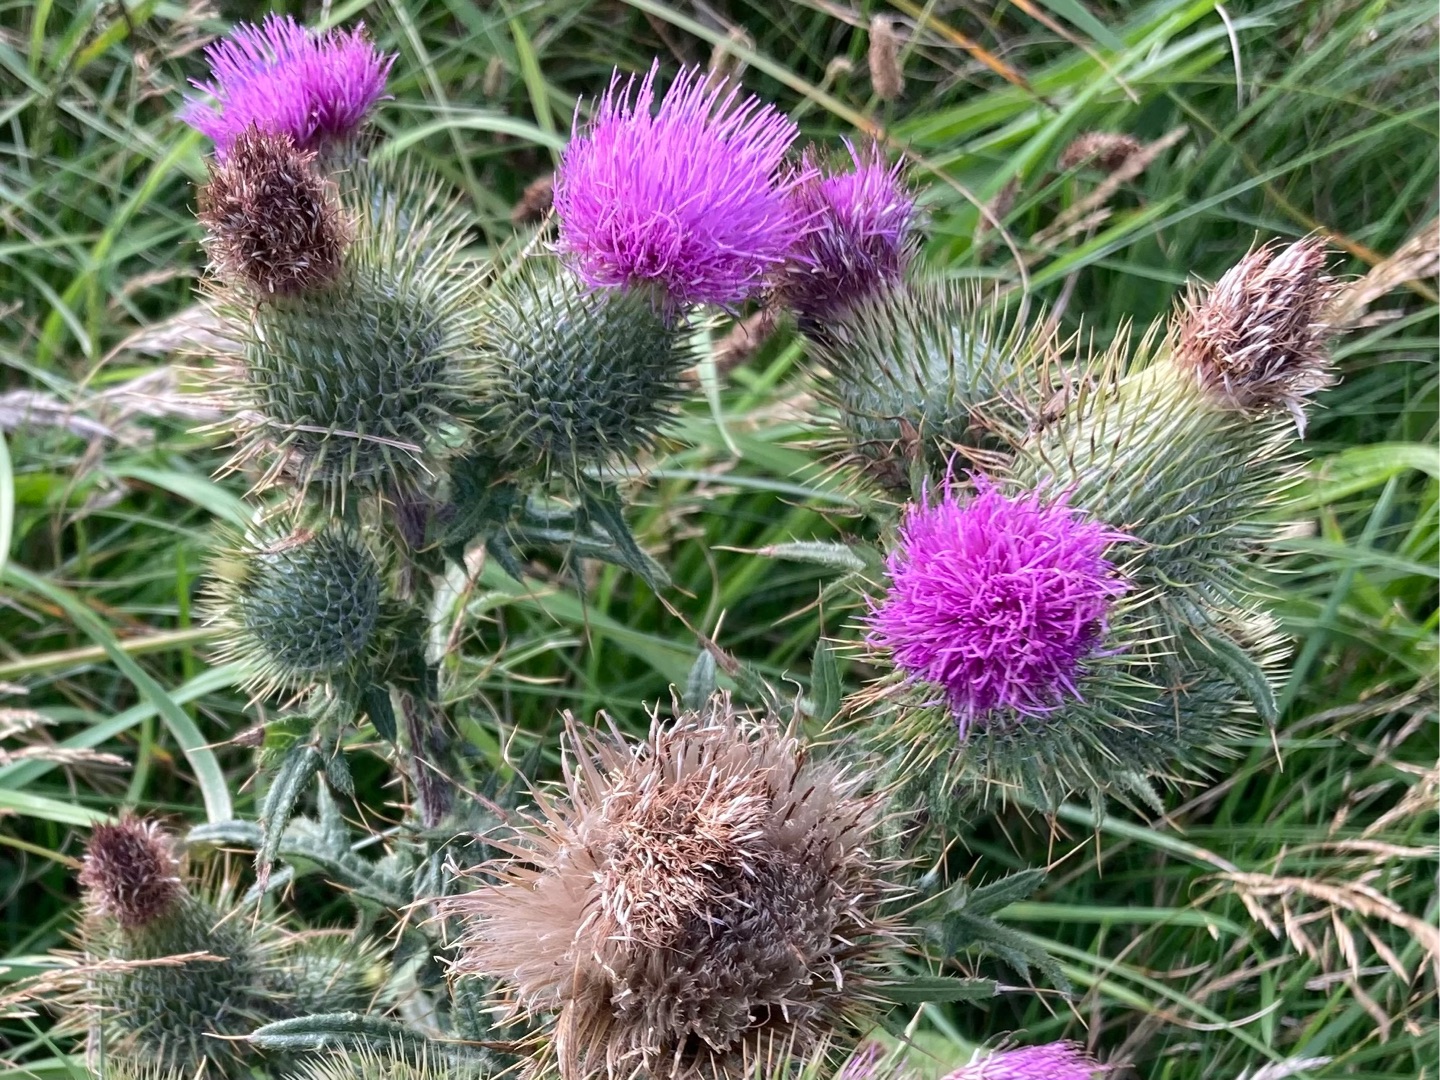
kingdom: Plantae
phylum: Tracheophyta
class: Magnoliopsida
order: Asterales
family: Asteraceae
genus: Cirsium
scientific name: Cirsium vulgare
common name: Horse-tidsel
